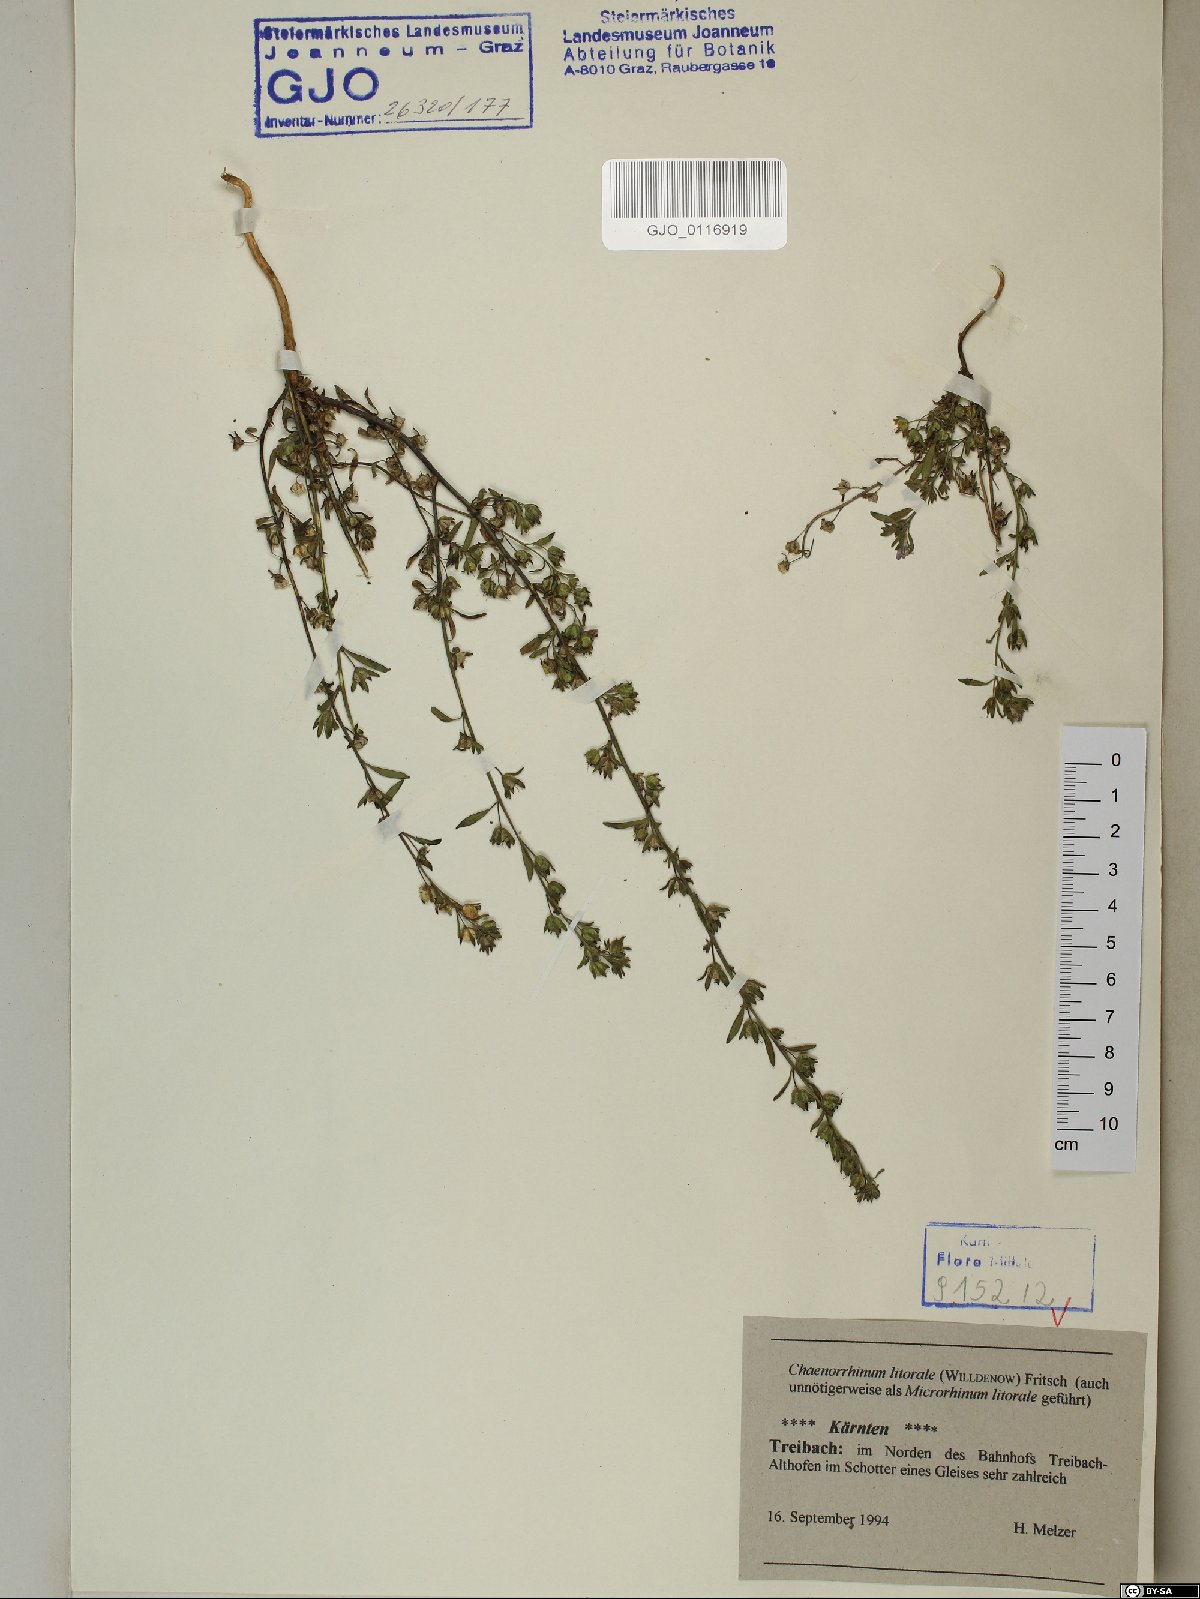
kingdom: Plantae
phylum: Tracheophyta
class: Magnoliopsida
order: Lamiales
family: Plantaginaceae
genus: Chaenorhinum
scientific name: Chaenorhinum litorale
